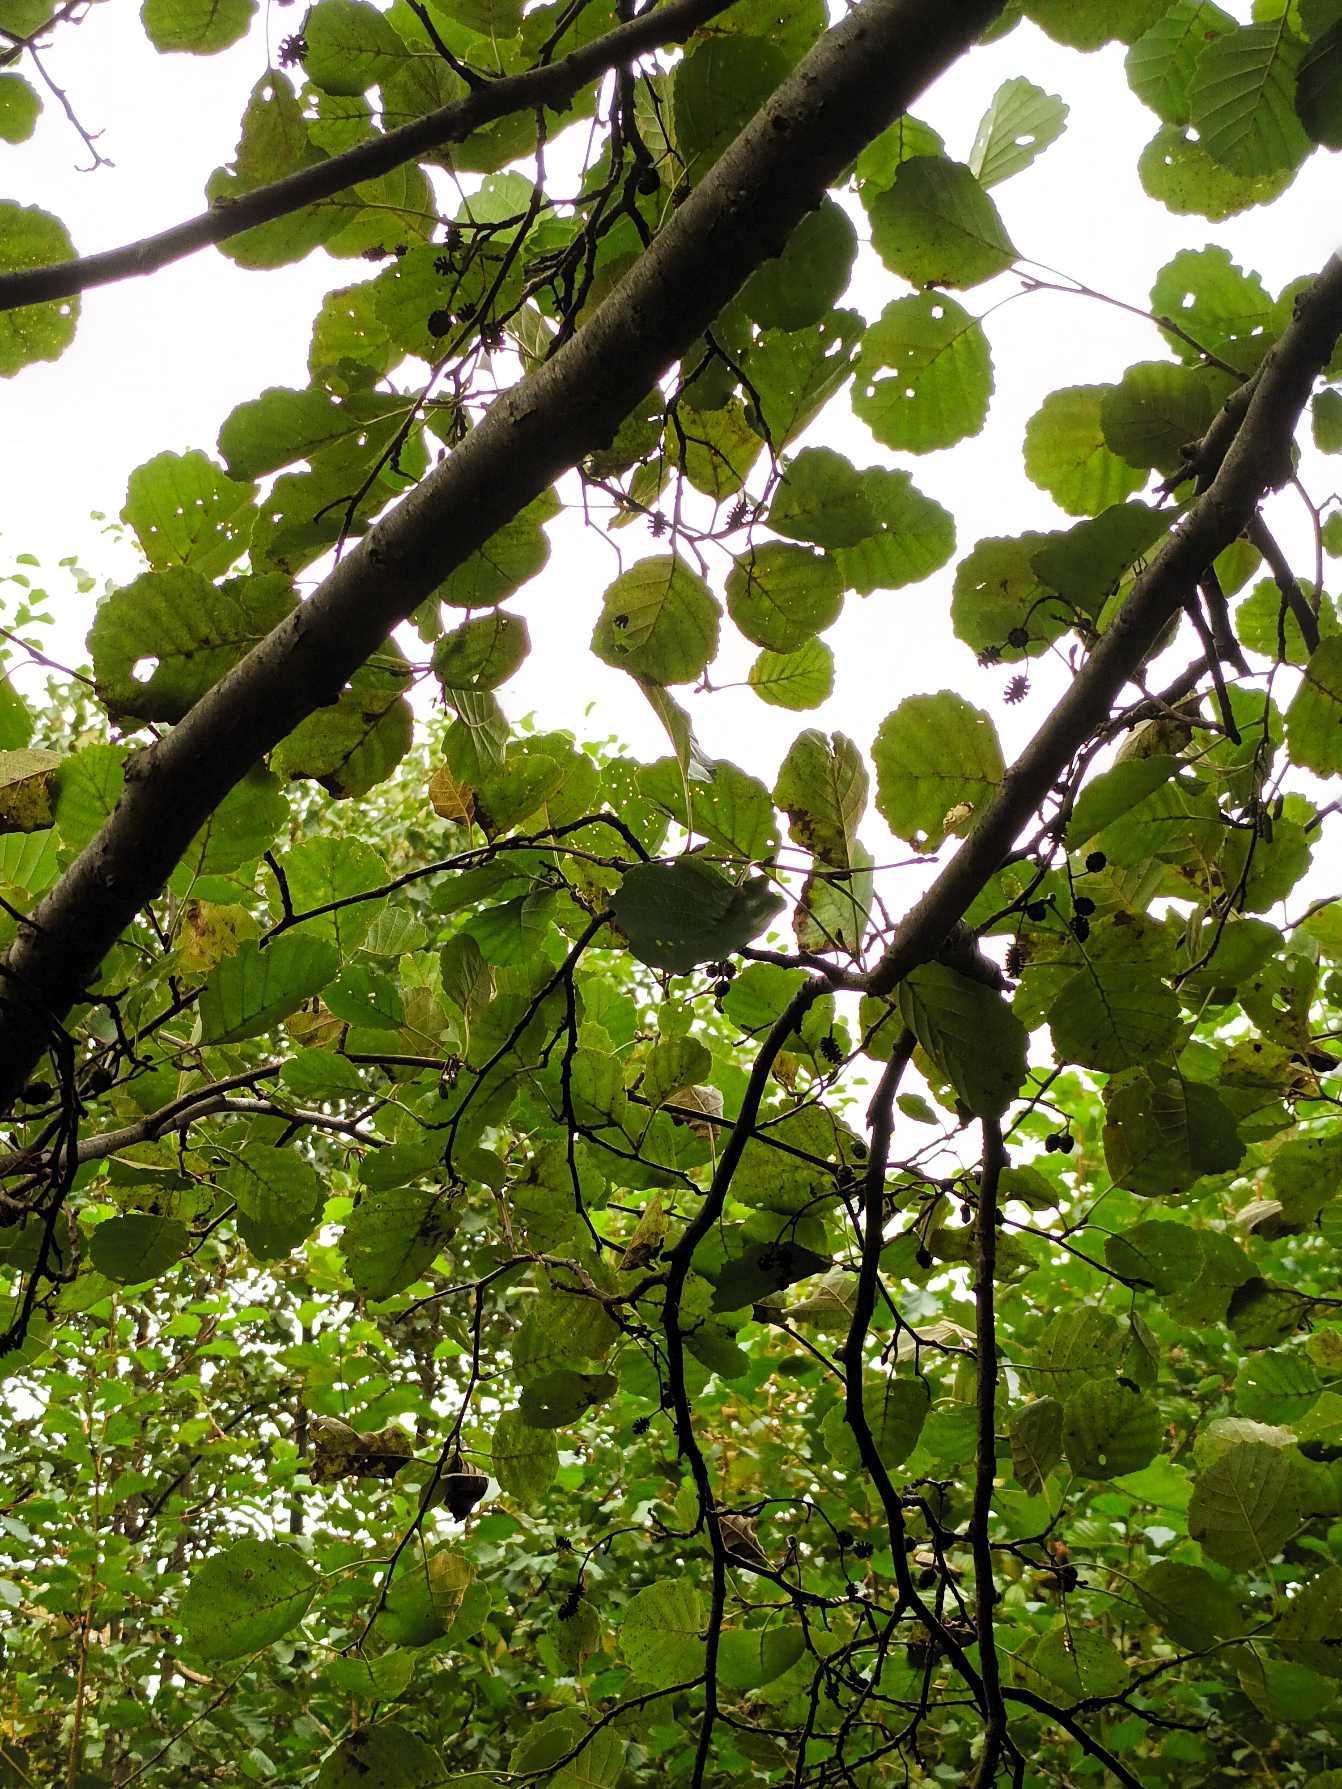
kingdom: Plantae
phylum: Tracheophyta
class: Magnoliopsida
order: Fagales
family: Betulaceae
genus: Alnus
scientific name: Alnus glutinosa
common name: Rød-el
